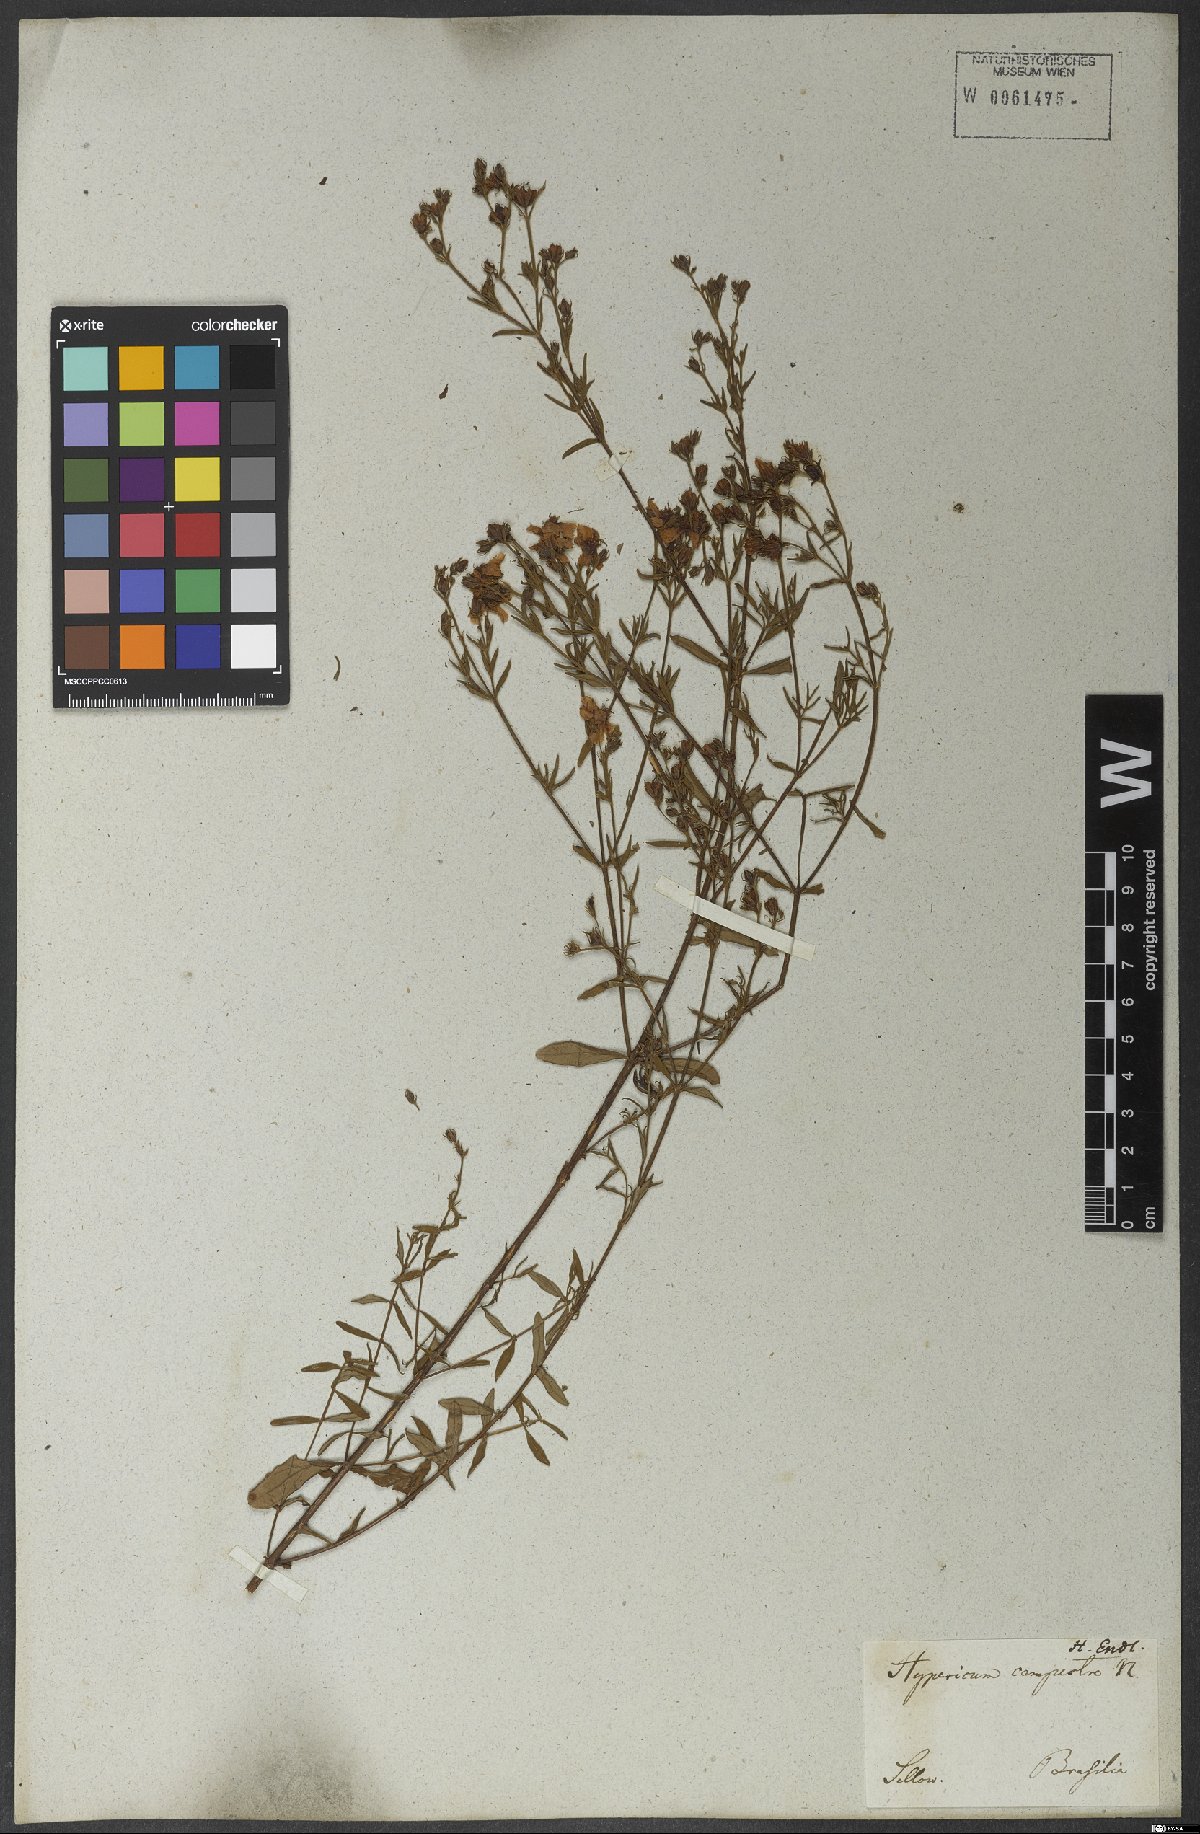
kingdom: Plantae
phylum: Tracheophyta
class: Magnoliopsida
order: Malpighiales
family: Hypericaceae
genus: Hypericum
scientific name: Hypericum campestre
